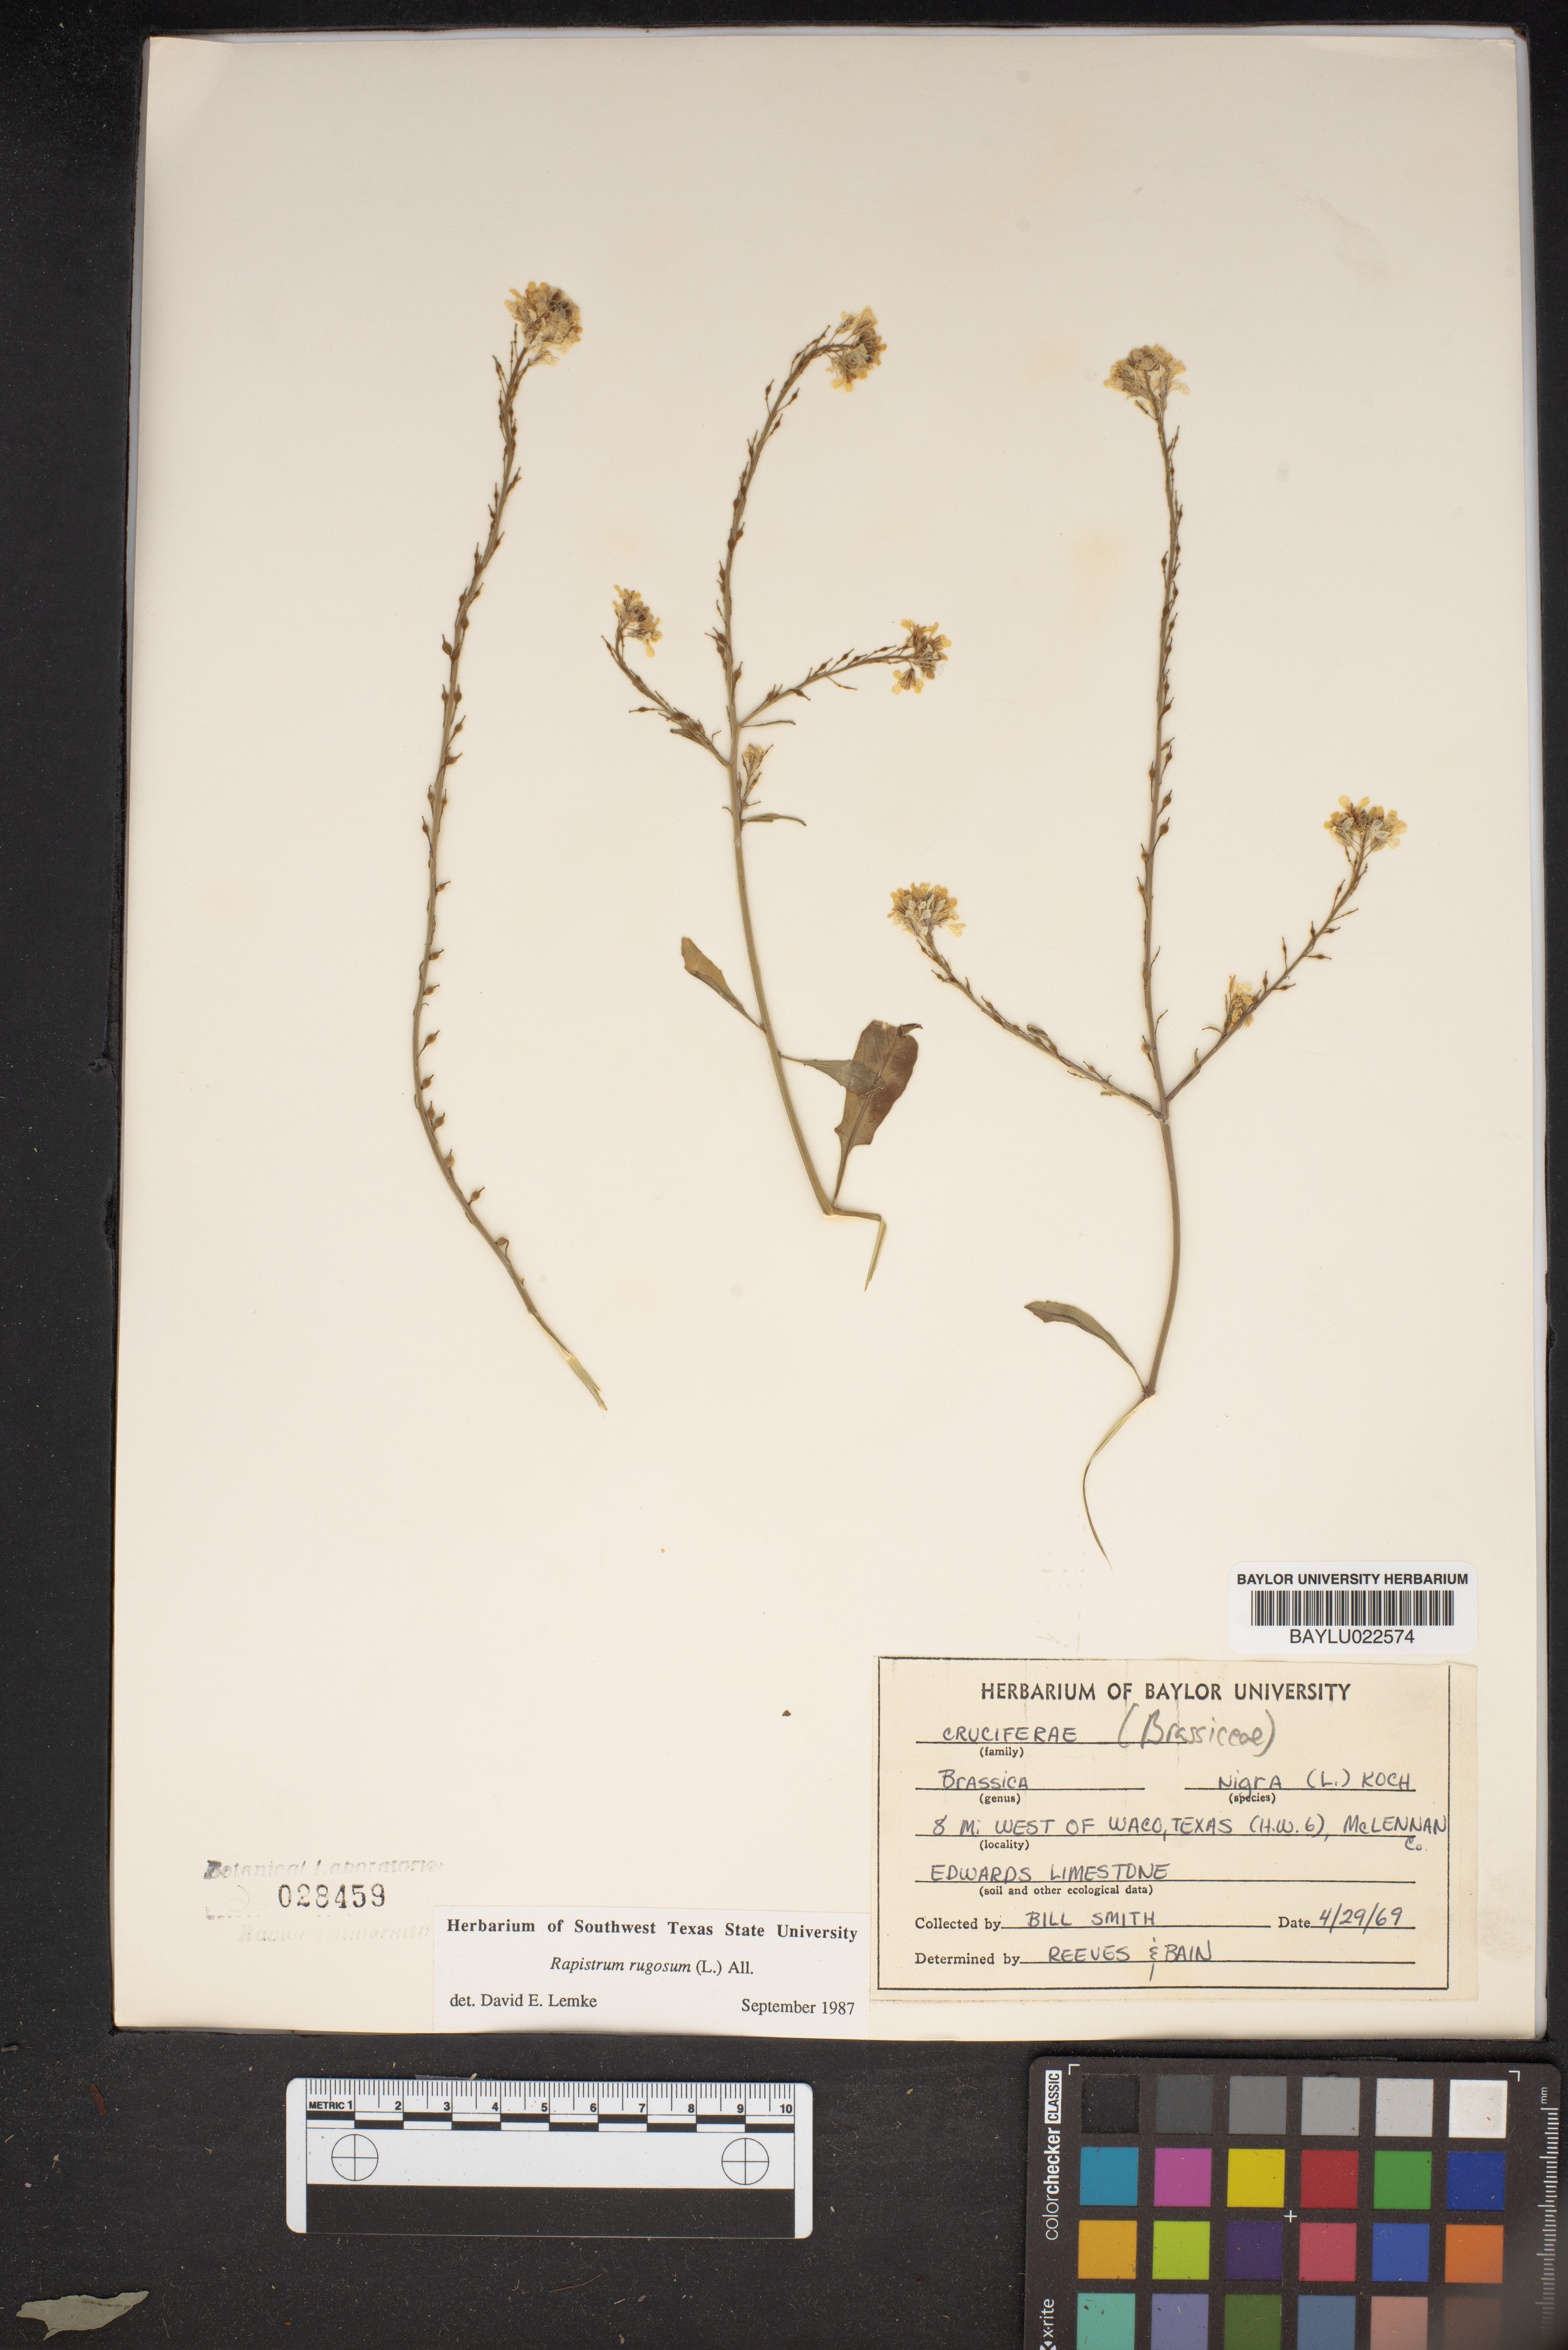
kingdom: Plantae
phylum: Tracheophyta
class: Magnoliopsida
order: Brassicales
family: Brassicaceae
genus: Rapistrum
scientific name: Rapistrum rugosum
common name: Annual bastardcabbage
